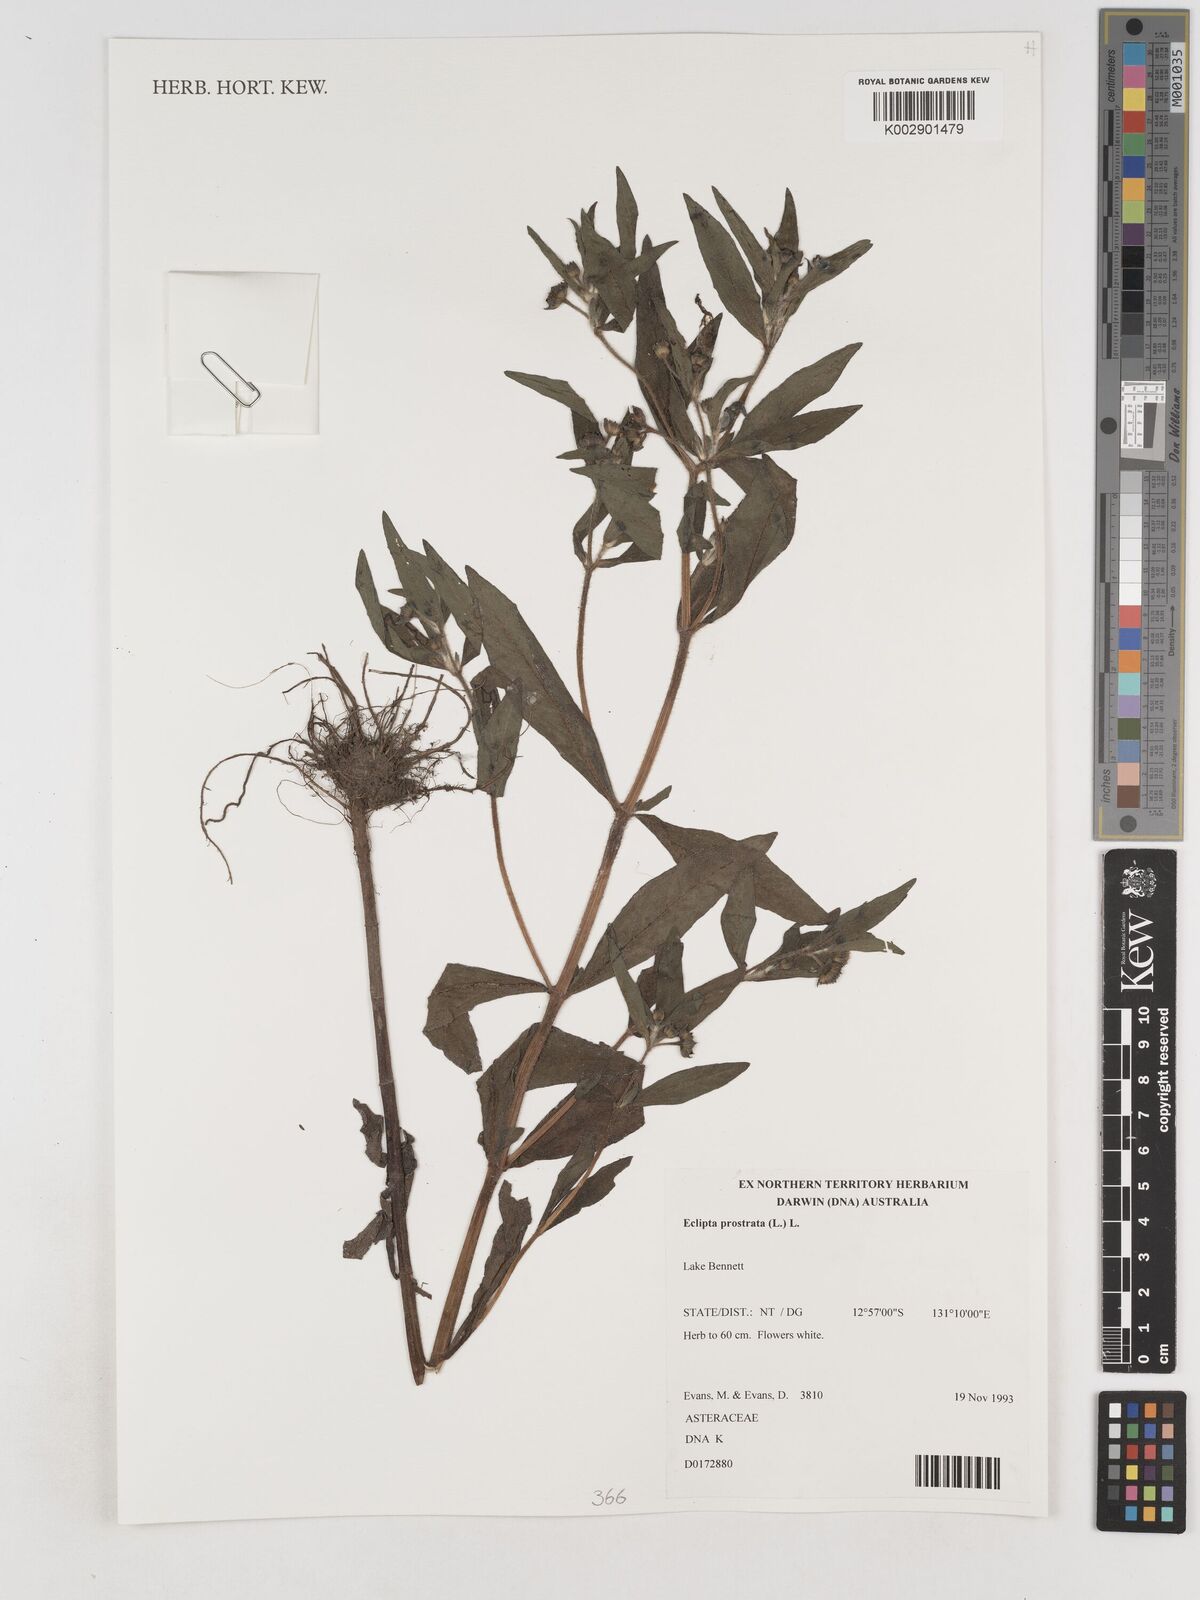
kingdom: Plantae
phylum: Tracheophyta
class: Magnoliopsida
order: Asterales
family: Asteraceae
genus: Eclipta
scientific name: Eclipta prostrata
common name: False daisy
